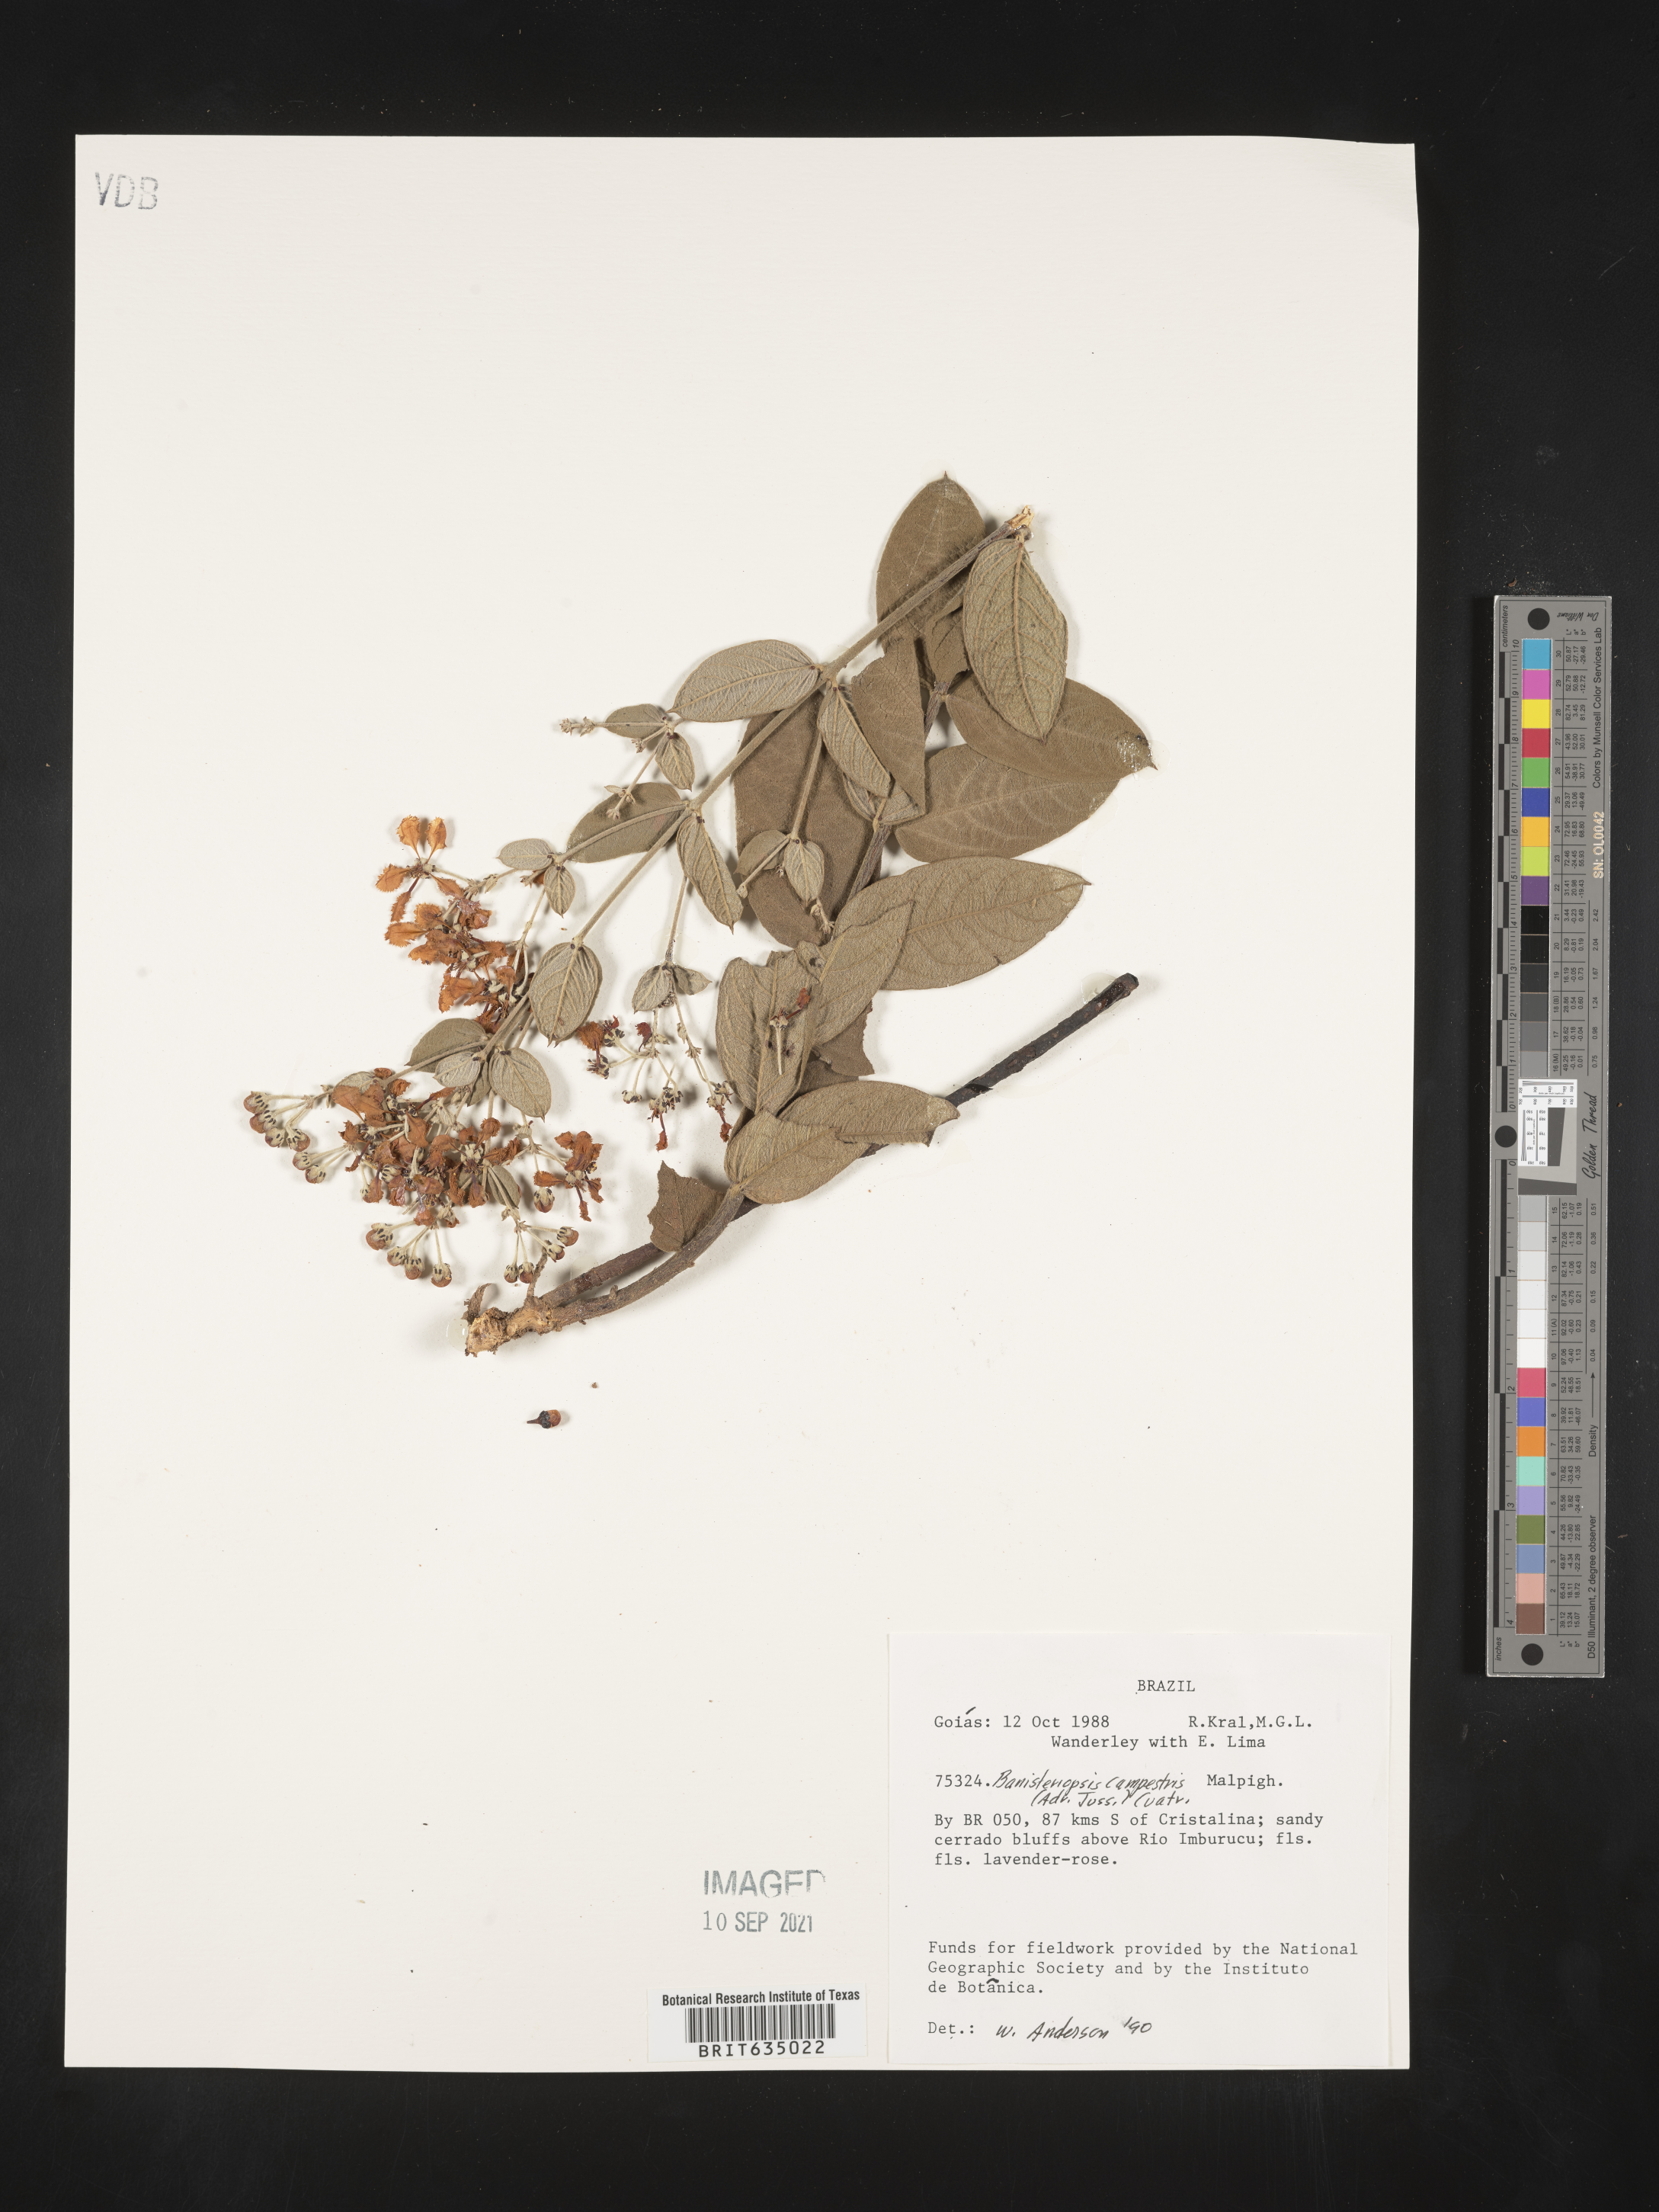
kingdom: Plantae
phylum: Tracheophyta
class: Magnoliopsida
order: Malpighiales
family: Malpighiaceae
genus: Banisteriopsis
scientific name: Banisteriopsis
